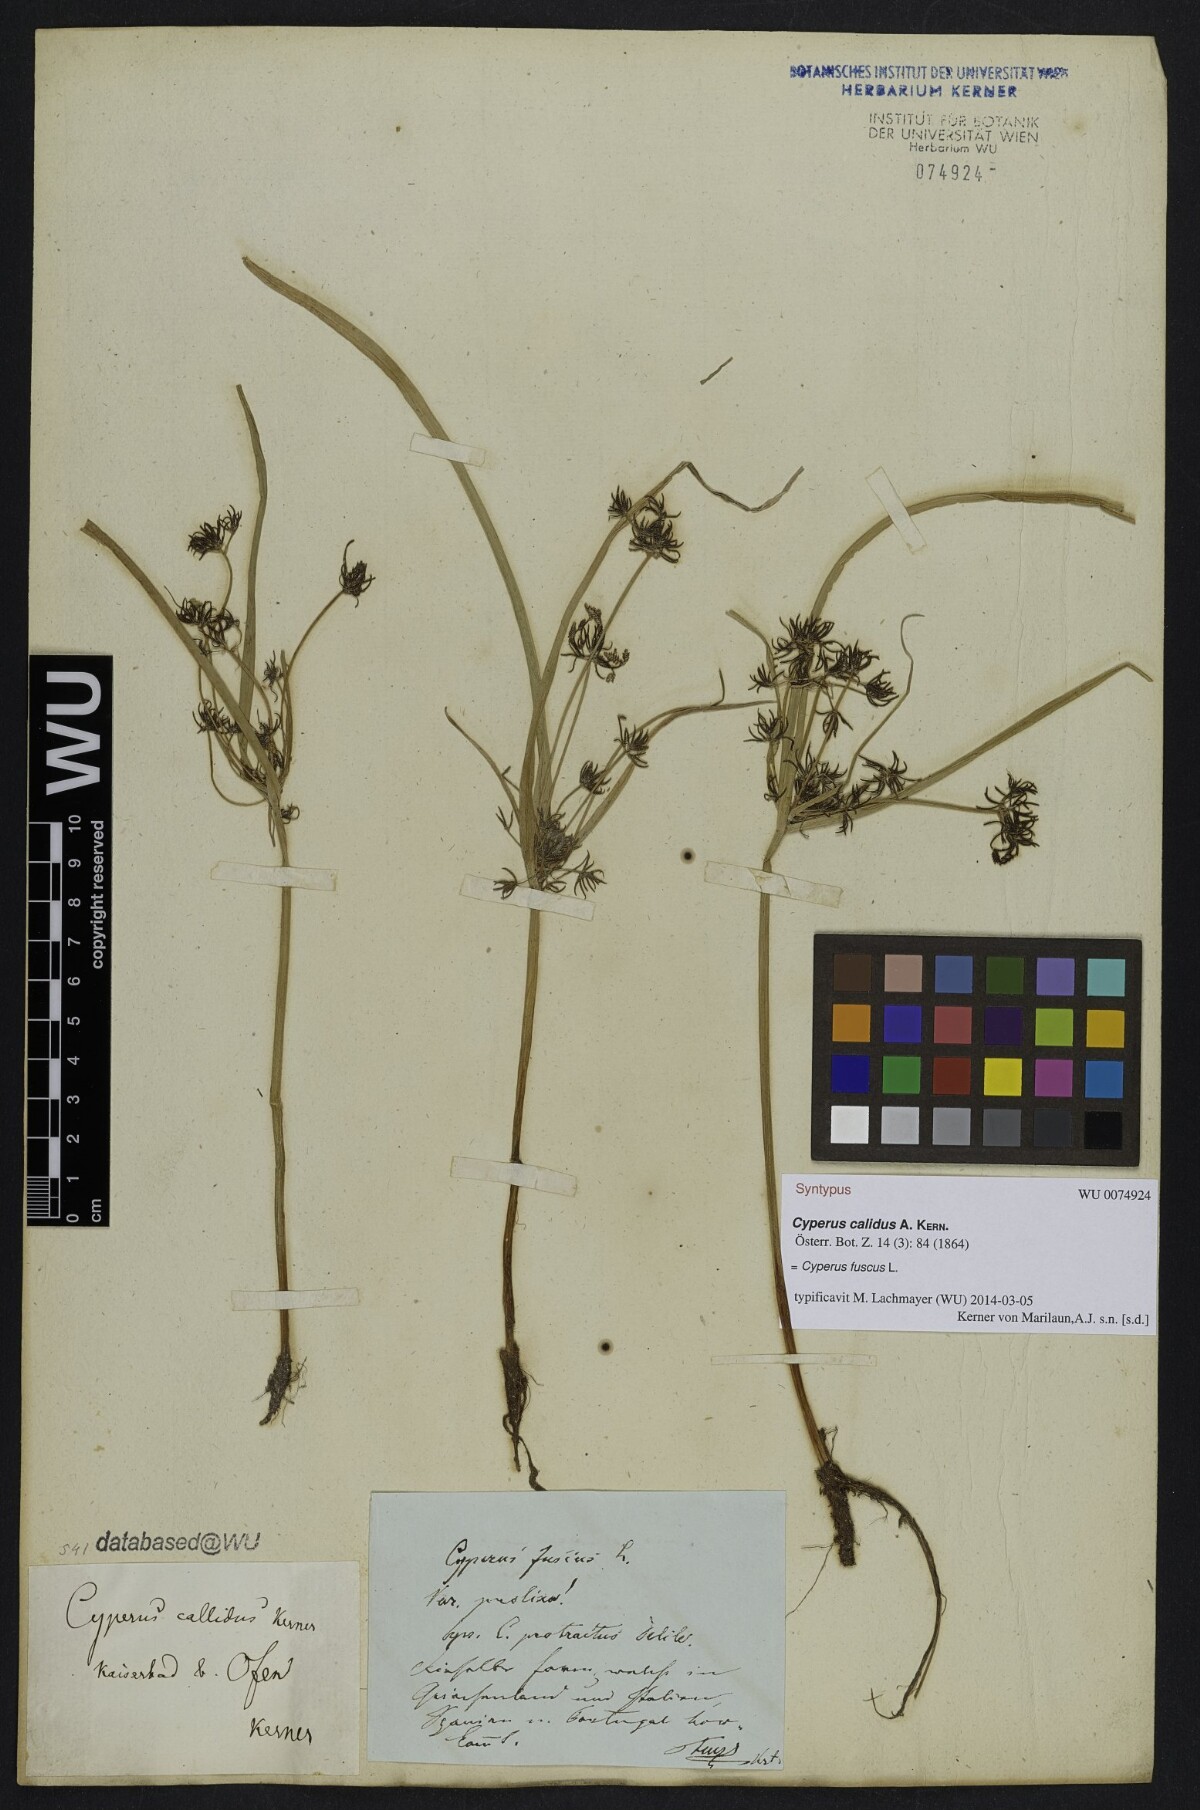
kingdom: Plantae
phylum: Tracheophyta
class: Liliopsida
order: Poales
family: Cyperaceae
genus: Cyperus
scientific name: Cyperus fuscus
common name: Brown galingale
